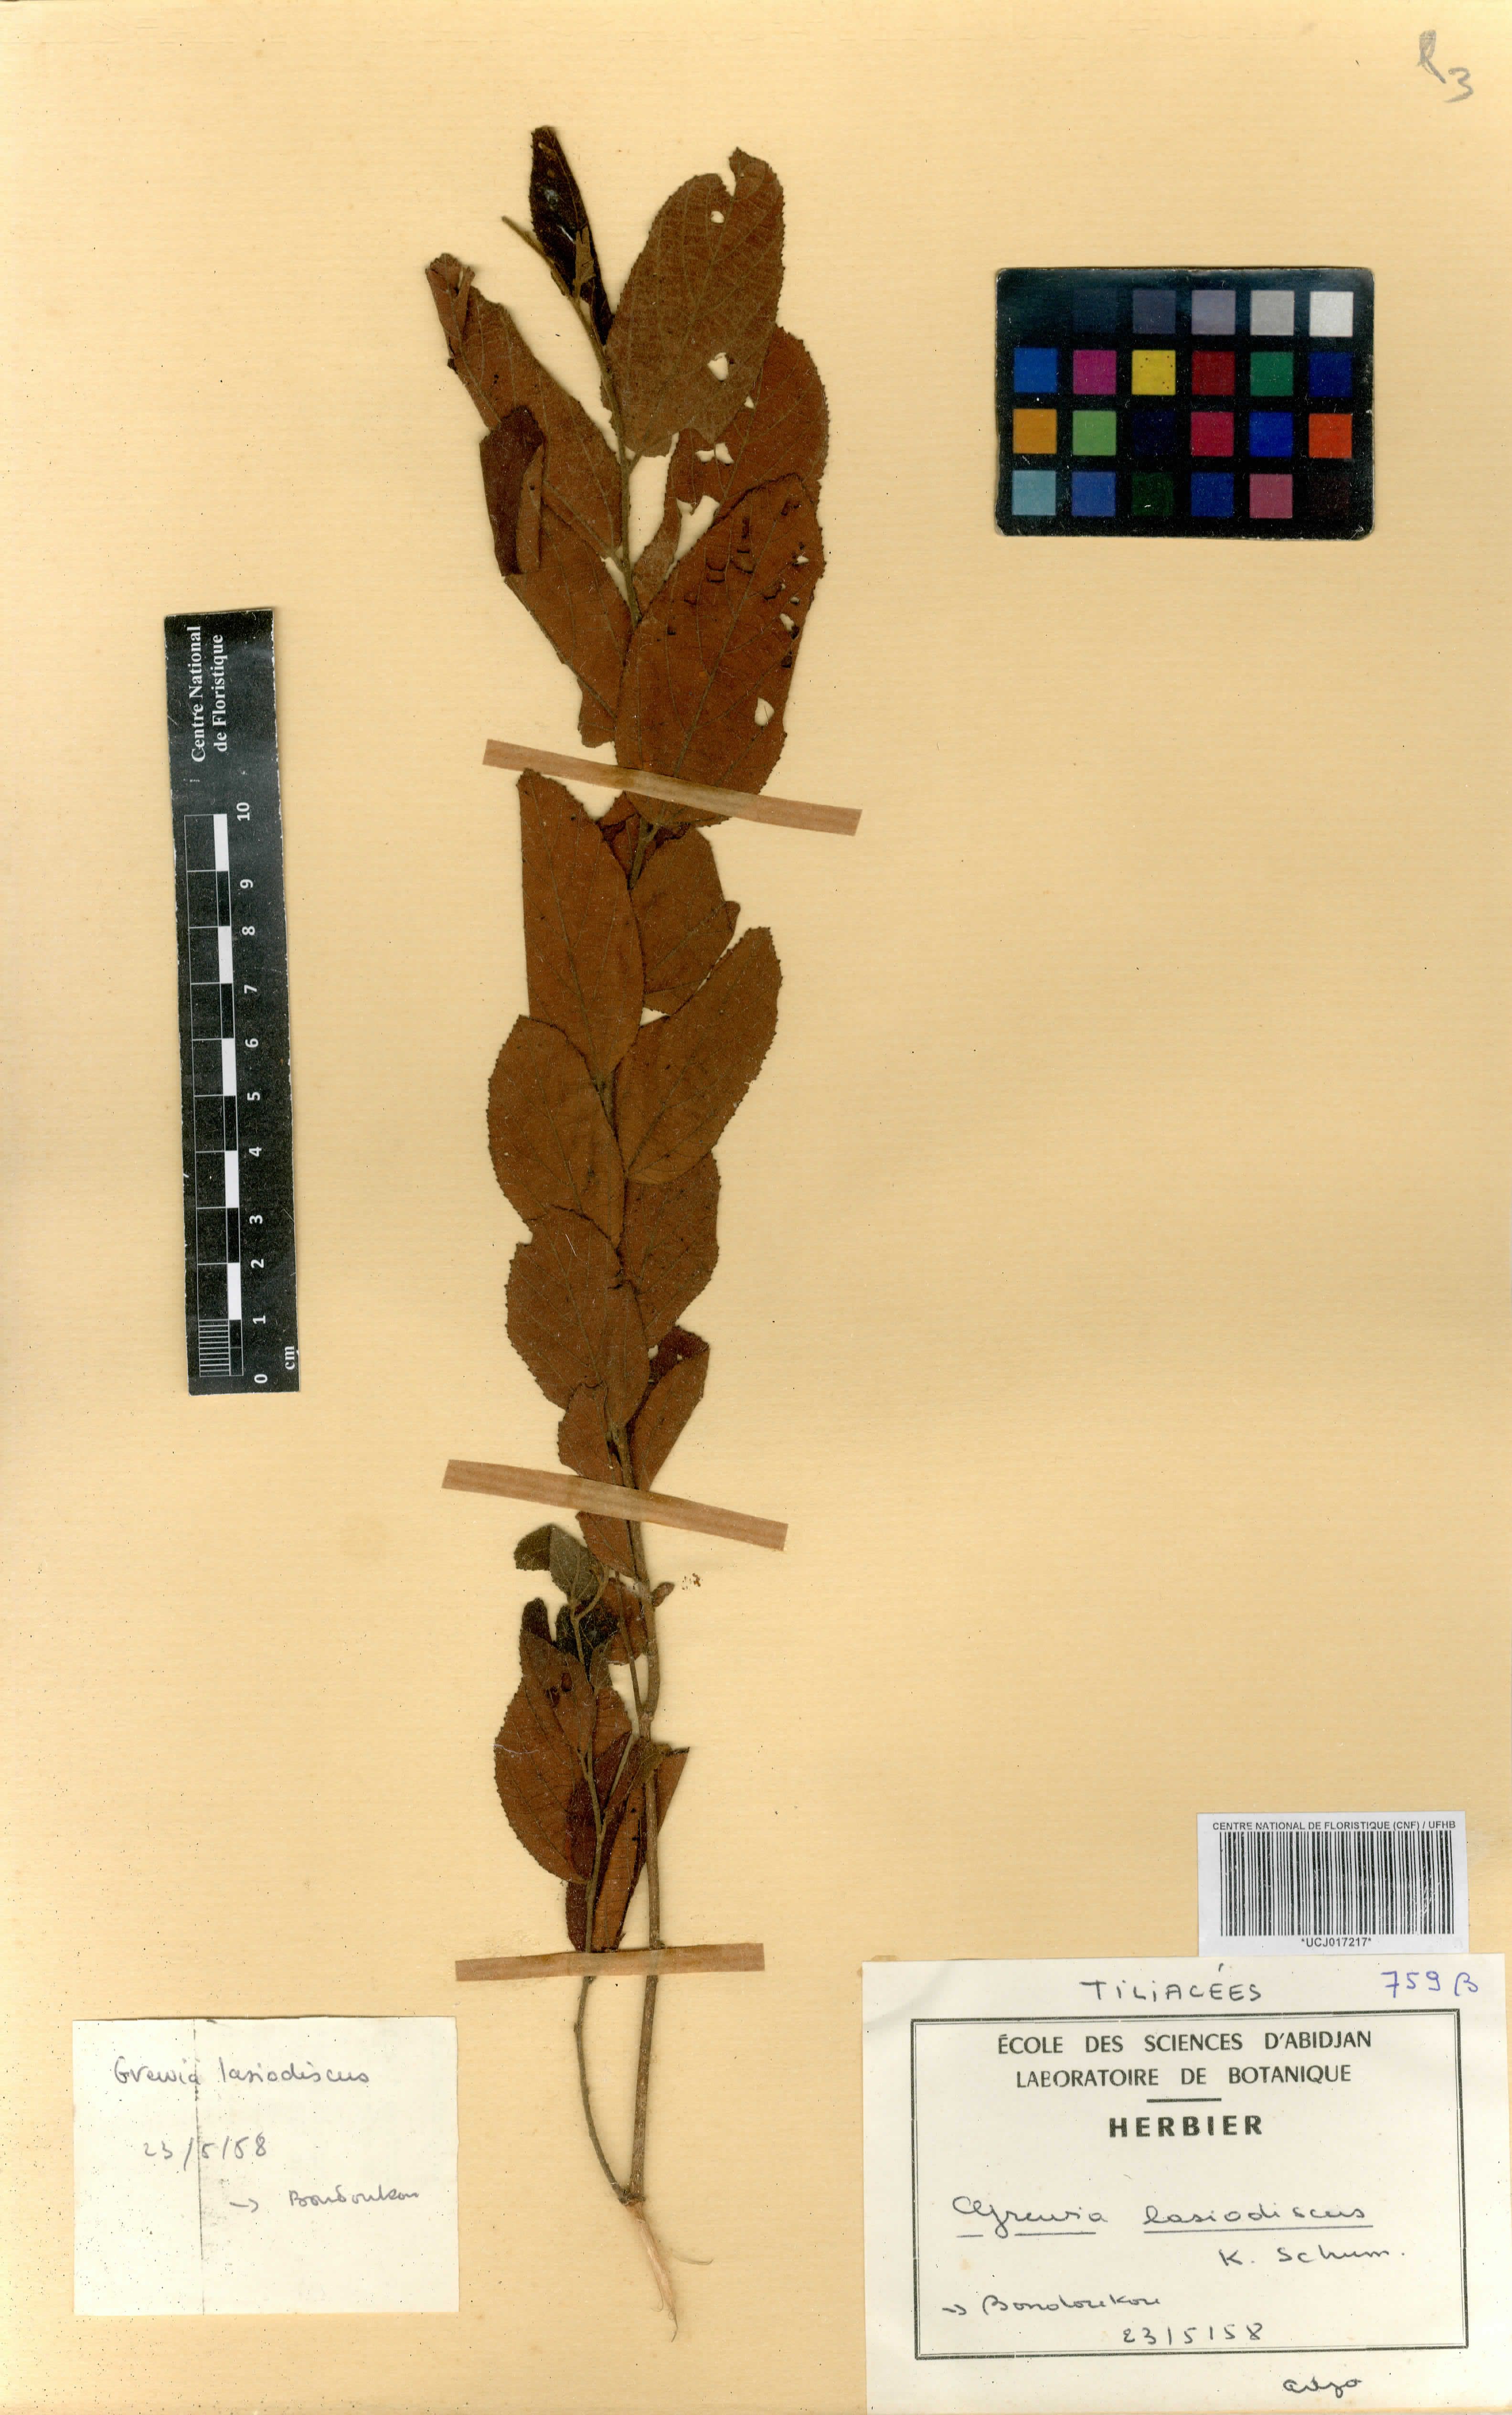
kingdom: Plantae
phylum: Tracheophyta
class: Magnoliopsida
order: Malvales
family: Malvaceae
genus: Grewia
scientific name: Grewia lasiodiscus
